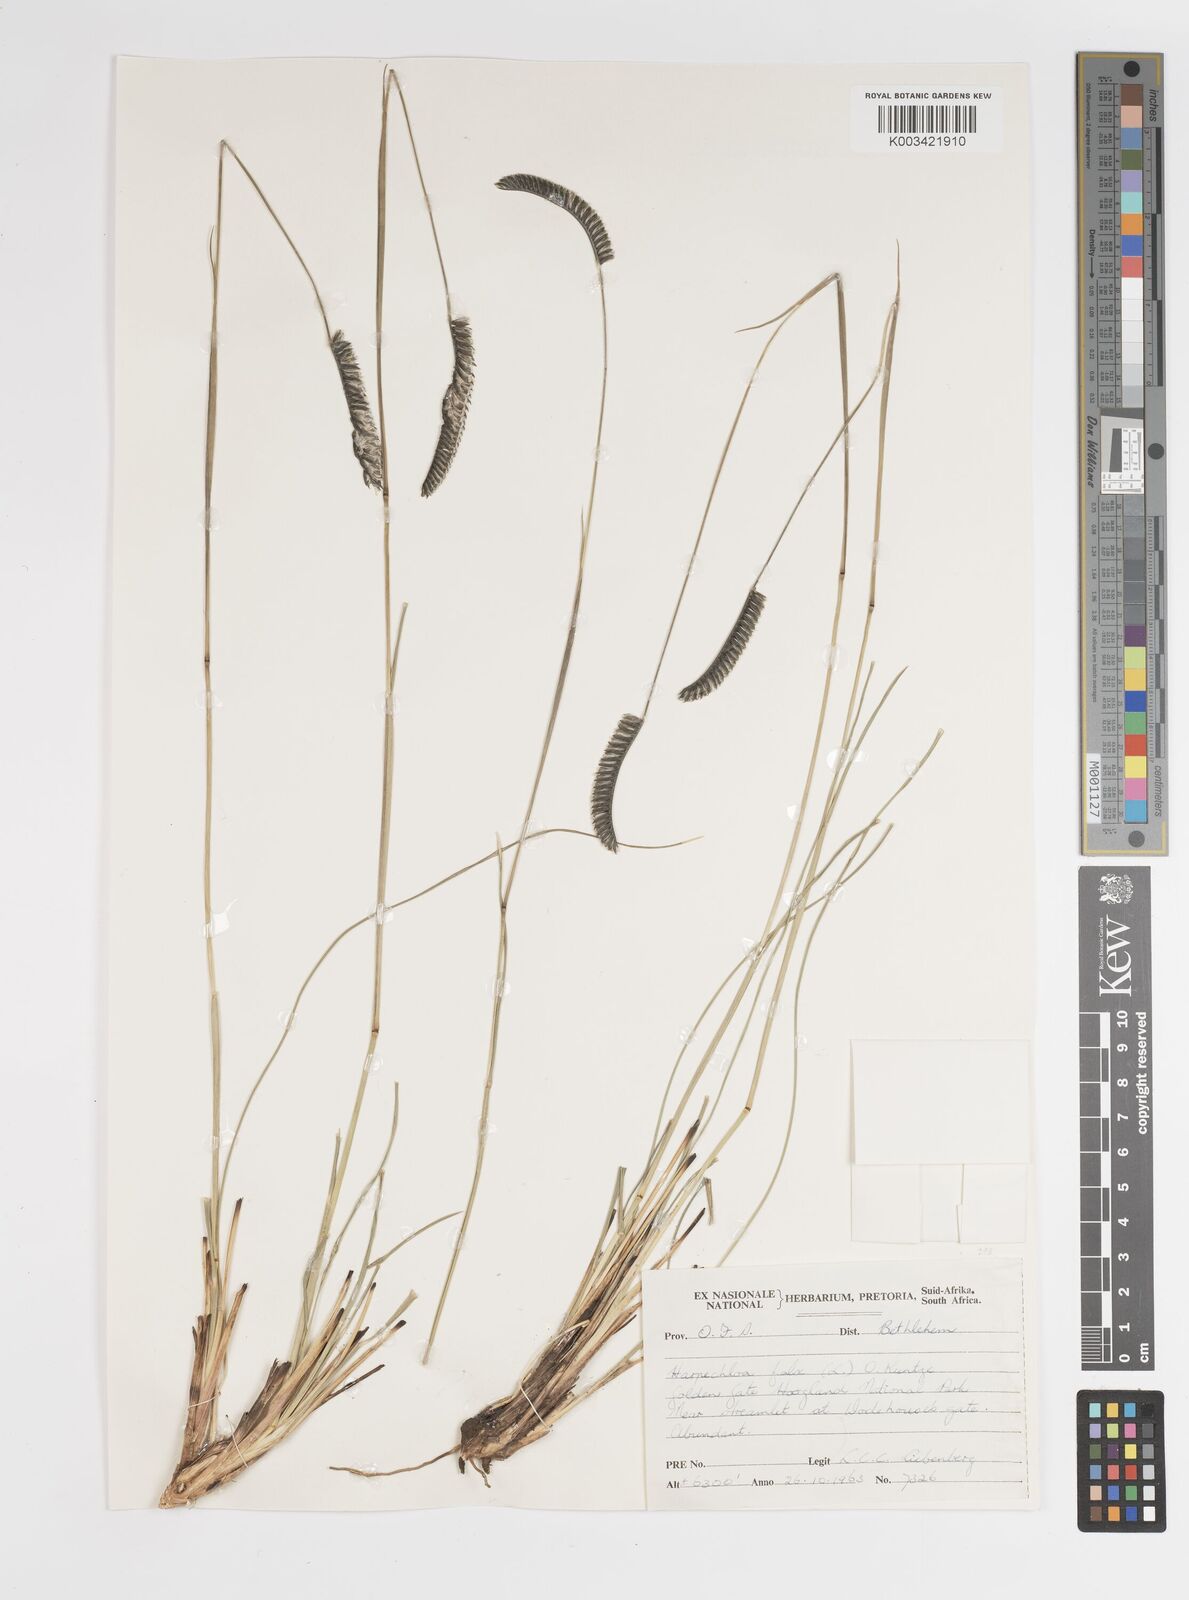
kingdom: Plantae
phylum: Tracheophyta
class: Liliopsida
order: Poales
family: Poaceae
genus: Harpochloa
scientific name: Harpochloa falx
